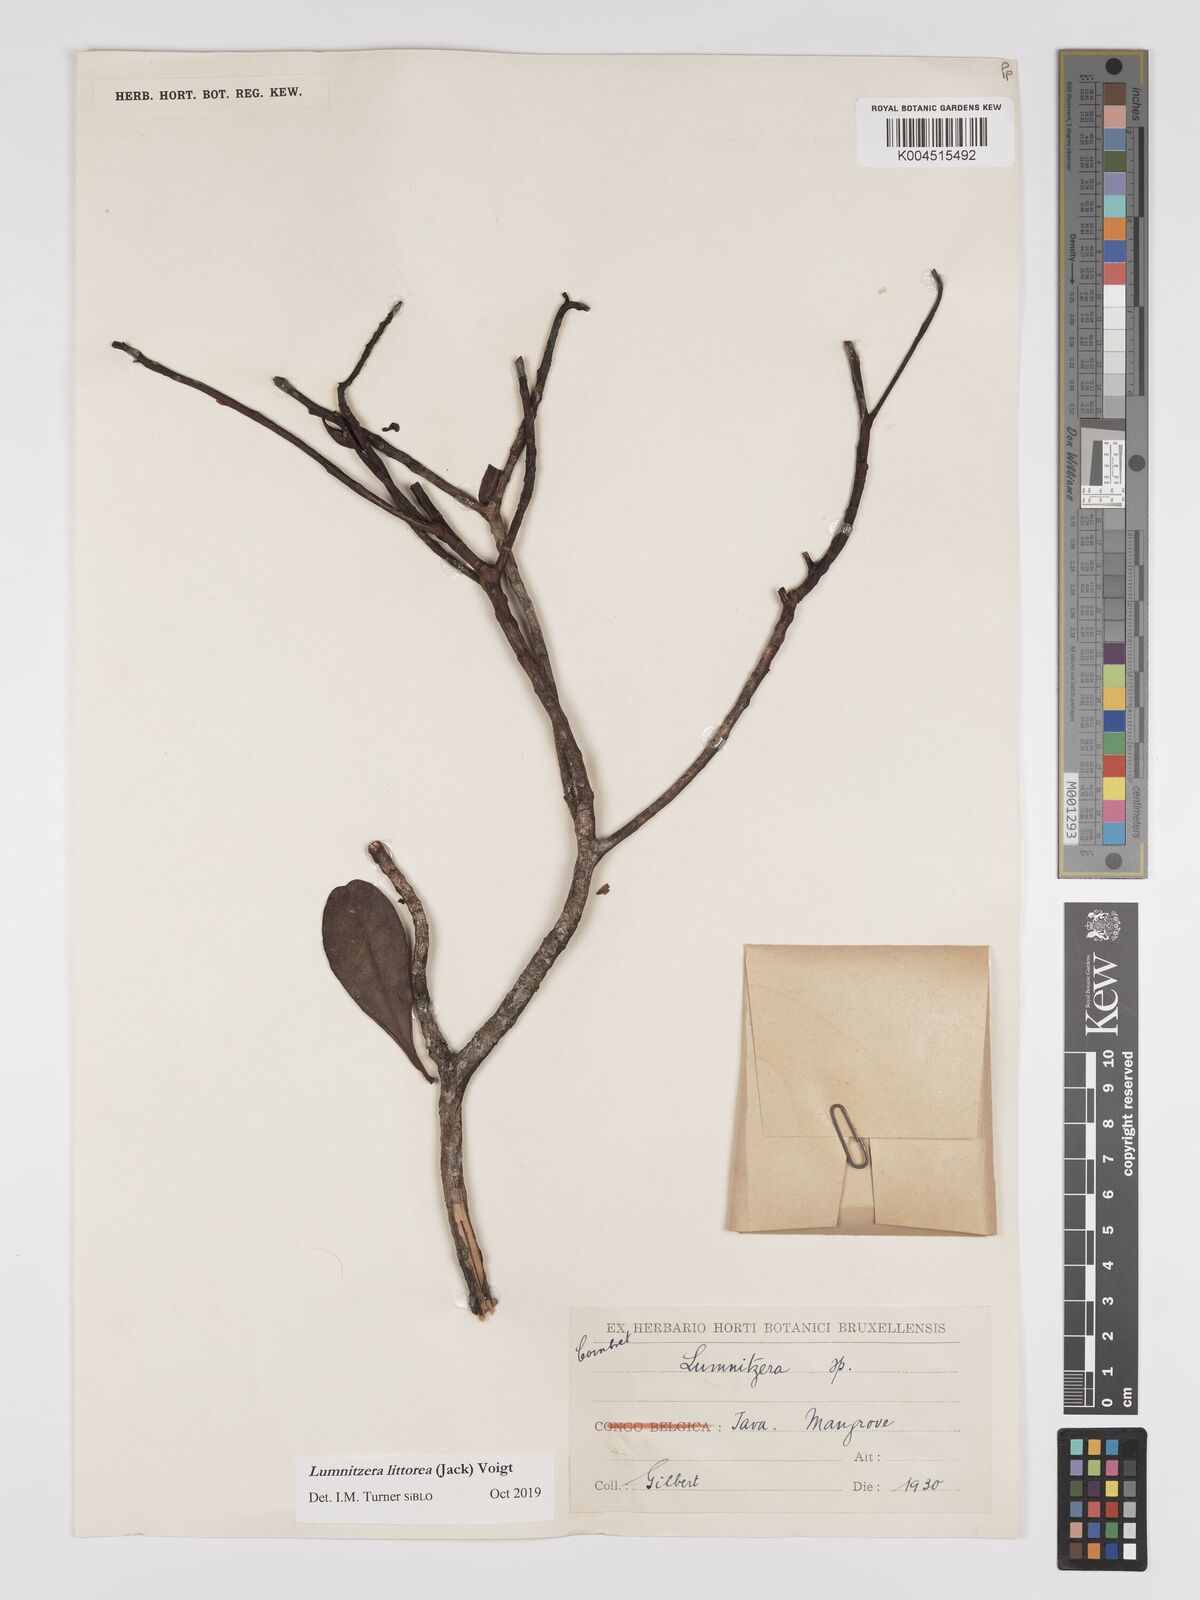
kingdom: Plantae
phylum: Tracheophyta
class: Magnoliopsida
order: Myrtales
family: Combretaceae
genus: Lumnitzera
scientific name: Lumnitzera littorea
